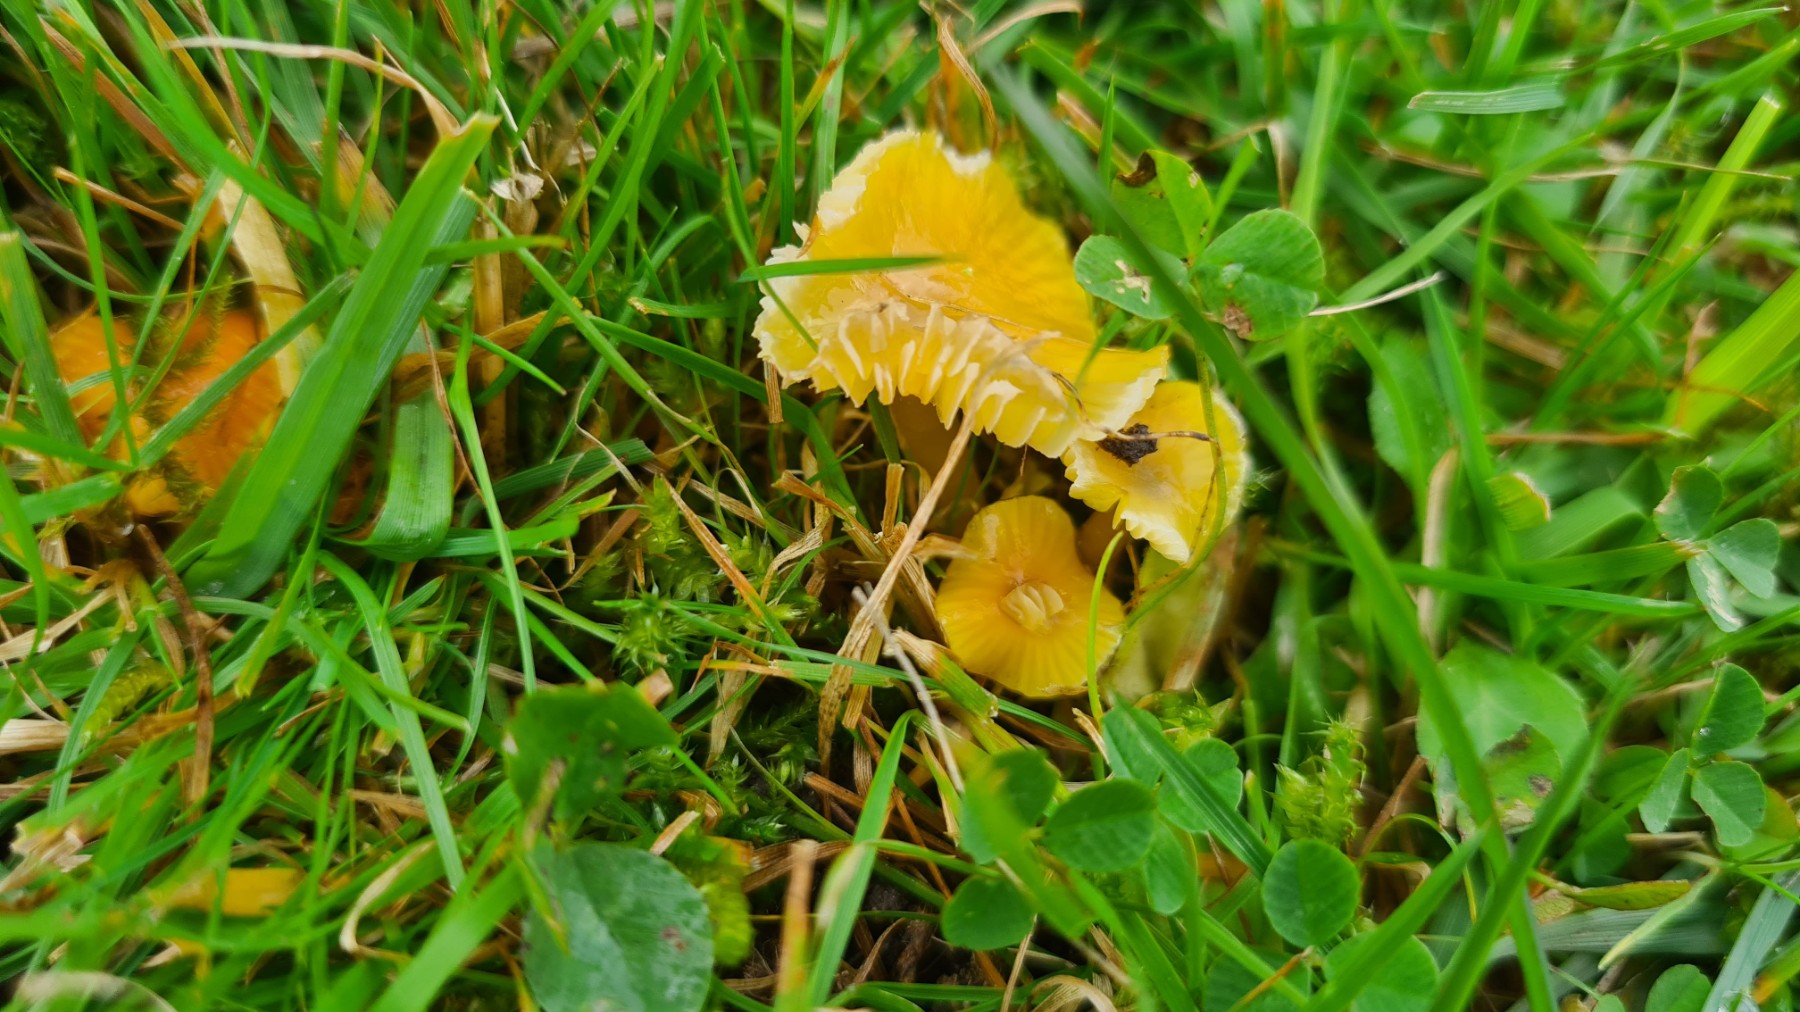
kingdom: Fungi
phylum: Basidiomycota
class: Agaricomycetes
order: Agaricales
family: Hygrophoraceae
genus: Hygrocybe
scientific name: Hygrocybe glutinipes
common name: slimstokket vokshat
